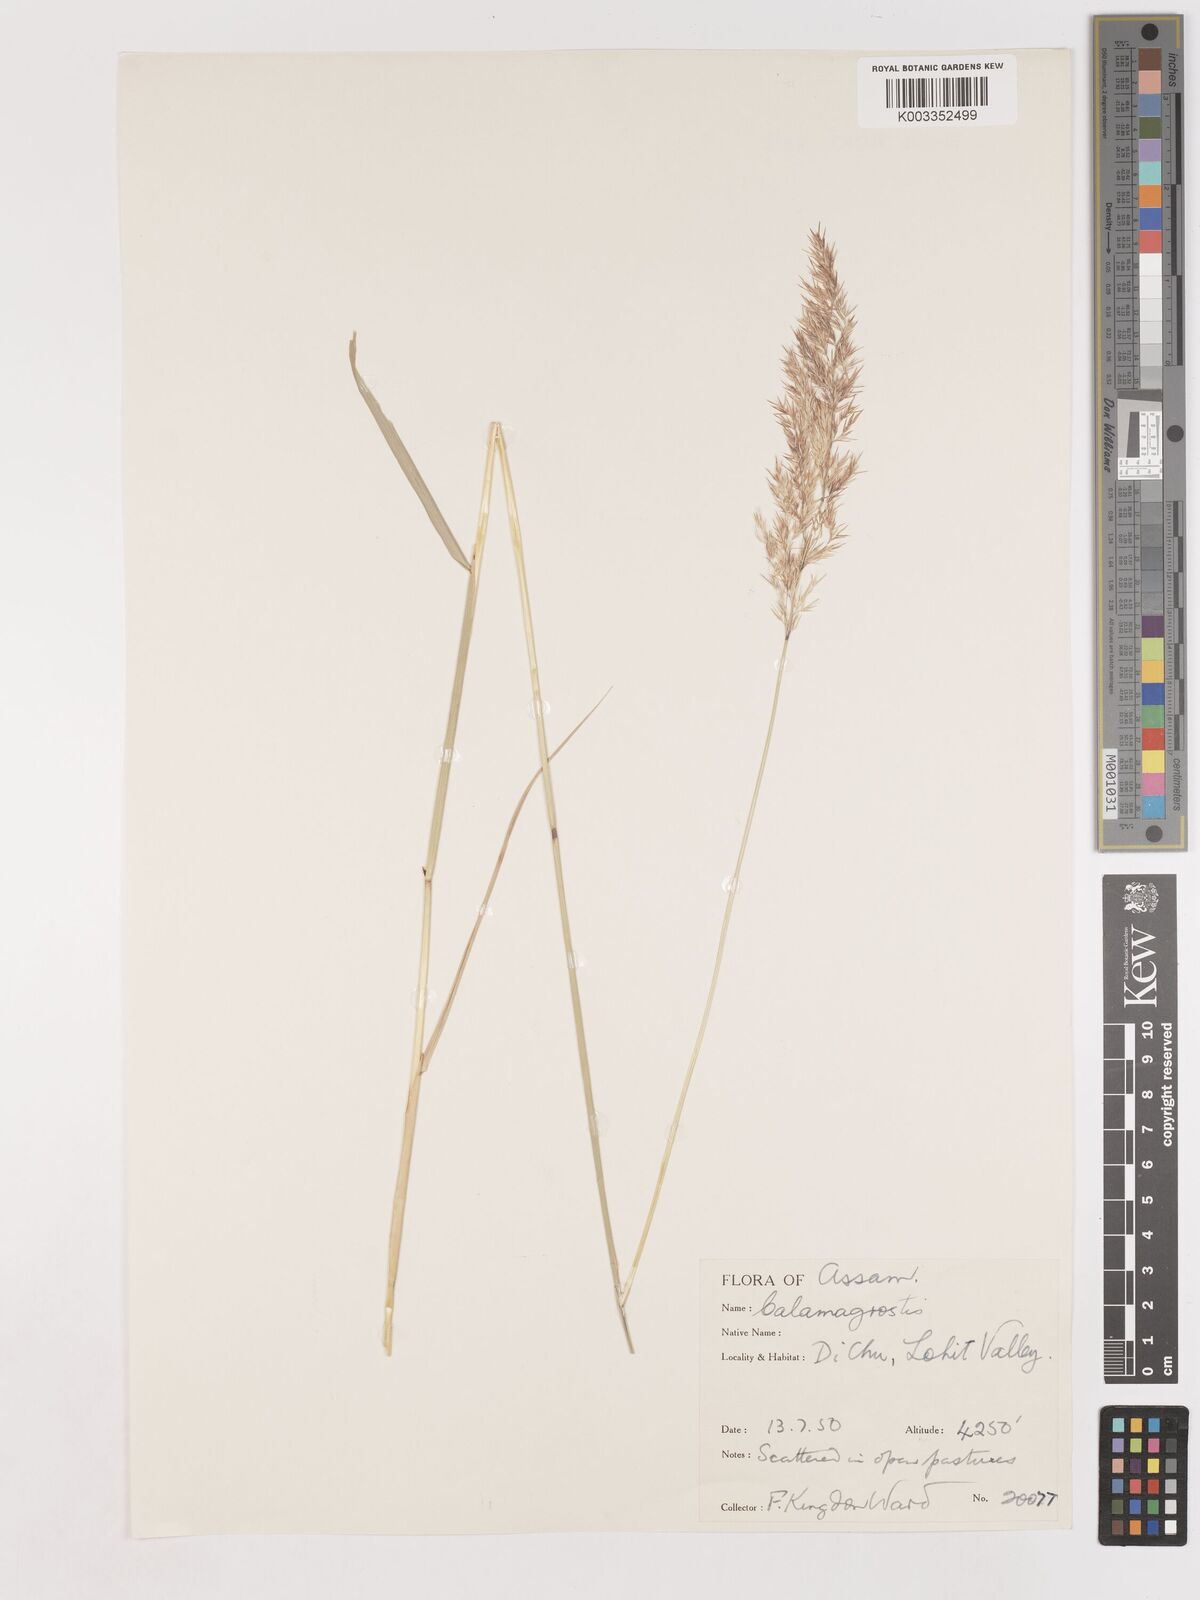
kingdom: Plantae
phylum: Tracheophyta
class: Liliopsida
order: Poales
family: Poaceae
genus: Calamagrostis
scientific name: Calamagrostis
